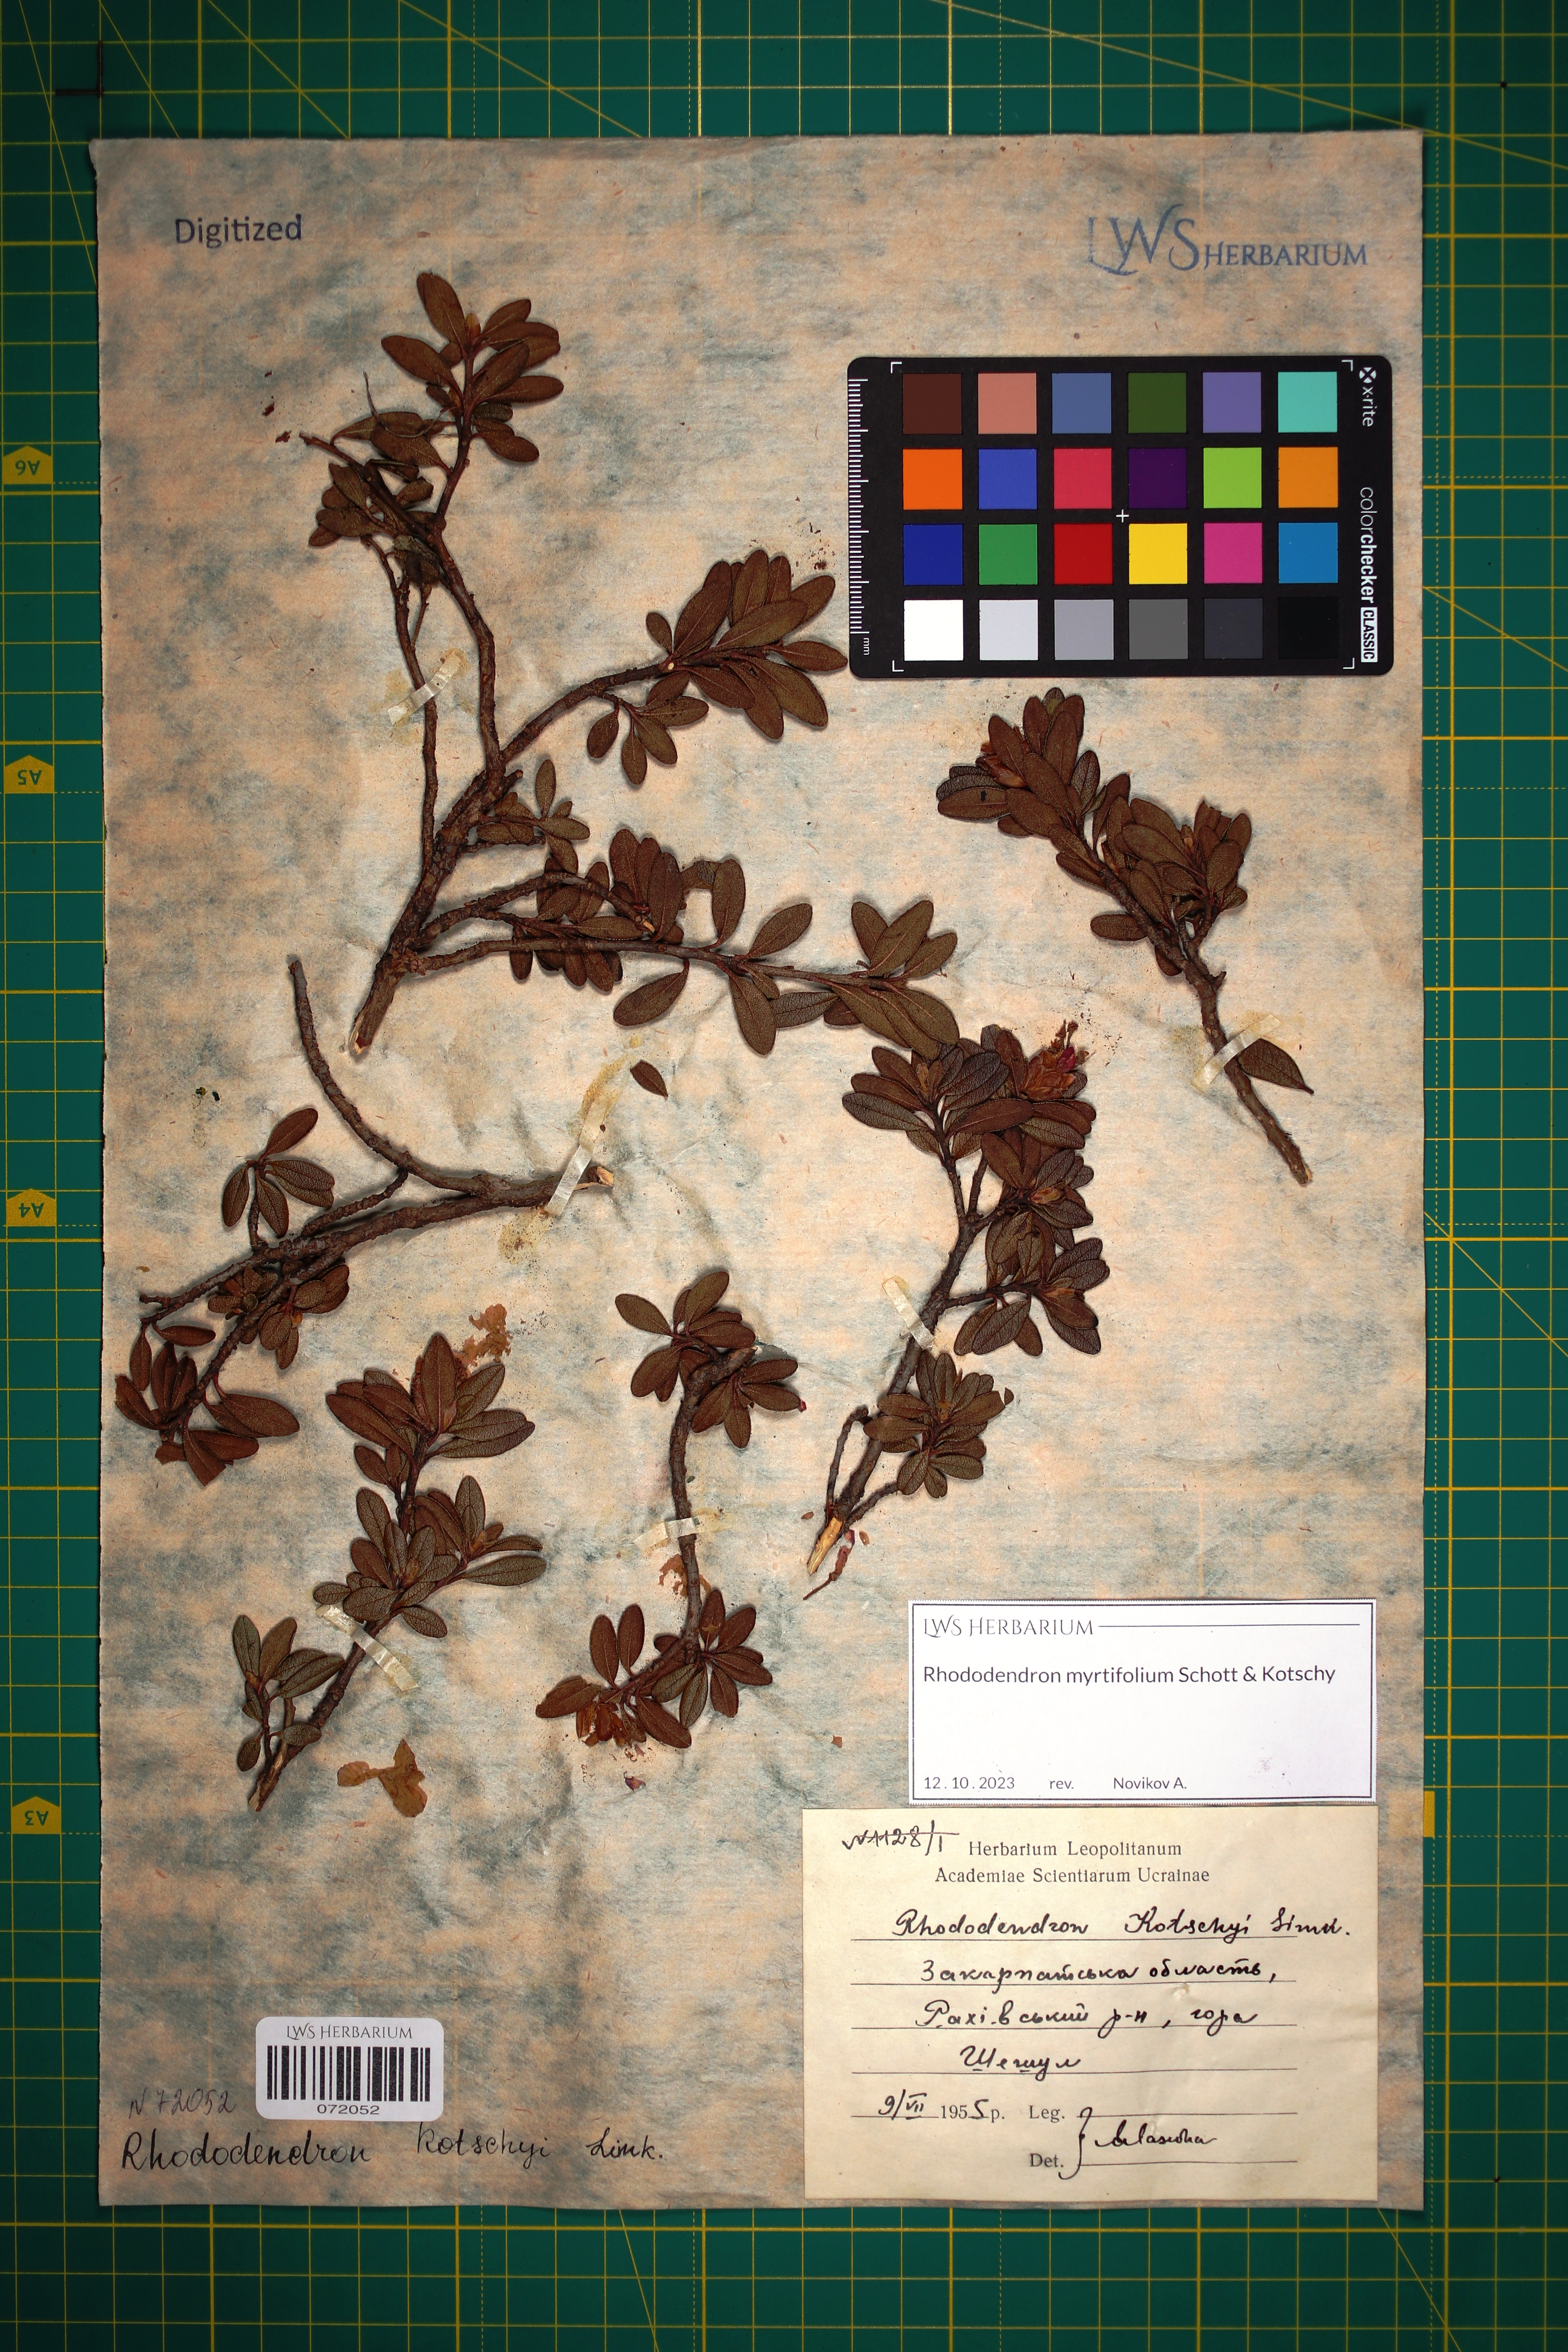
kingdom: Plantae
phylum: Tracheophyta
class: Magnoliopsida
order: Ericales
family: Ericaceae
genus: Rhododendron
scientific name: Rhododendron kotschyi
